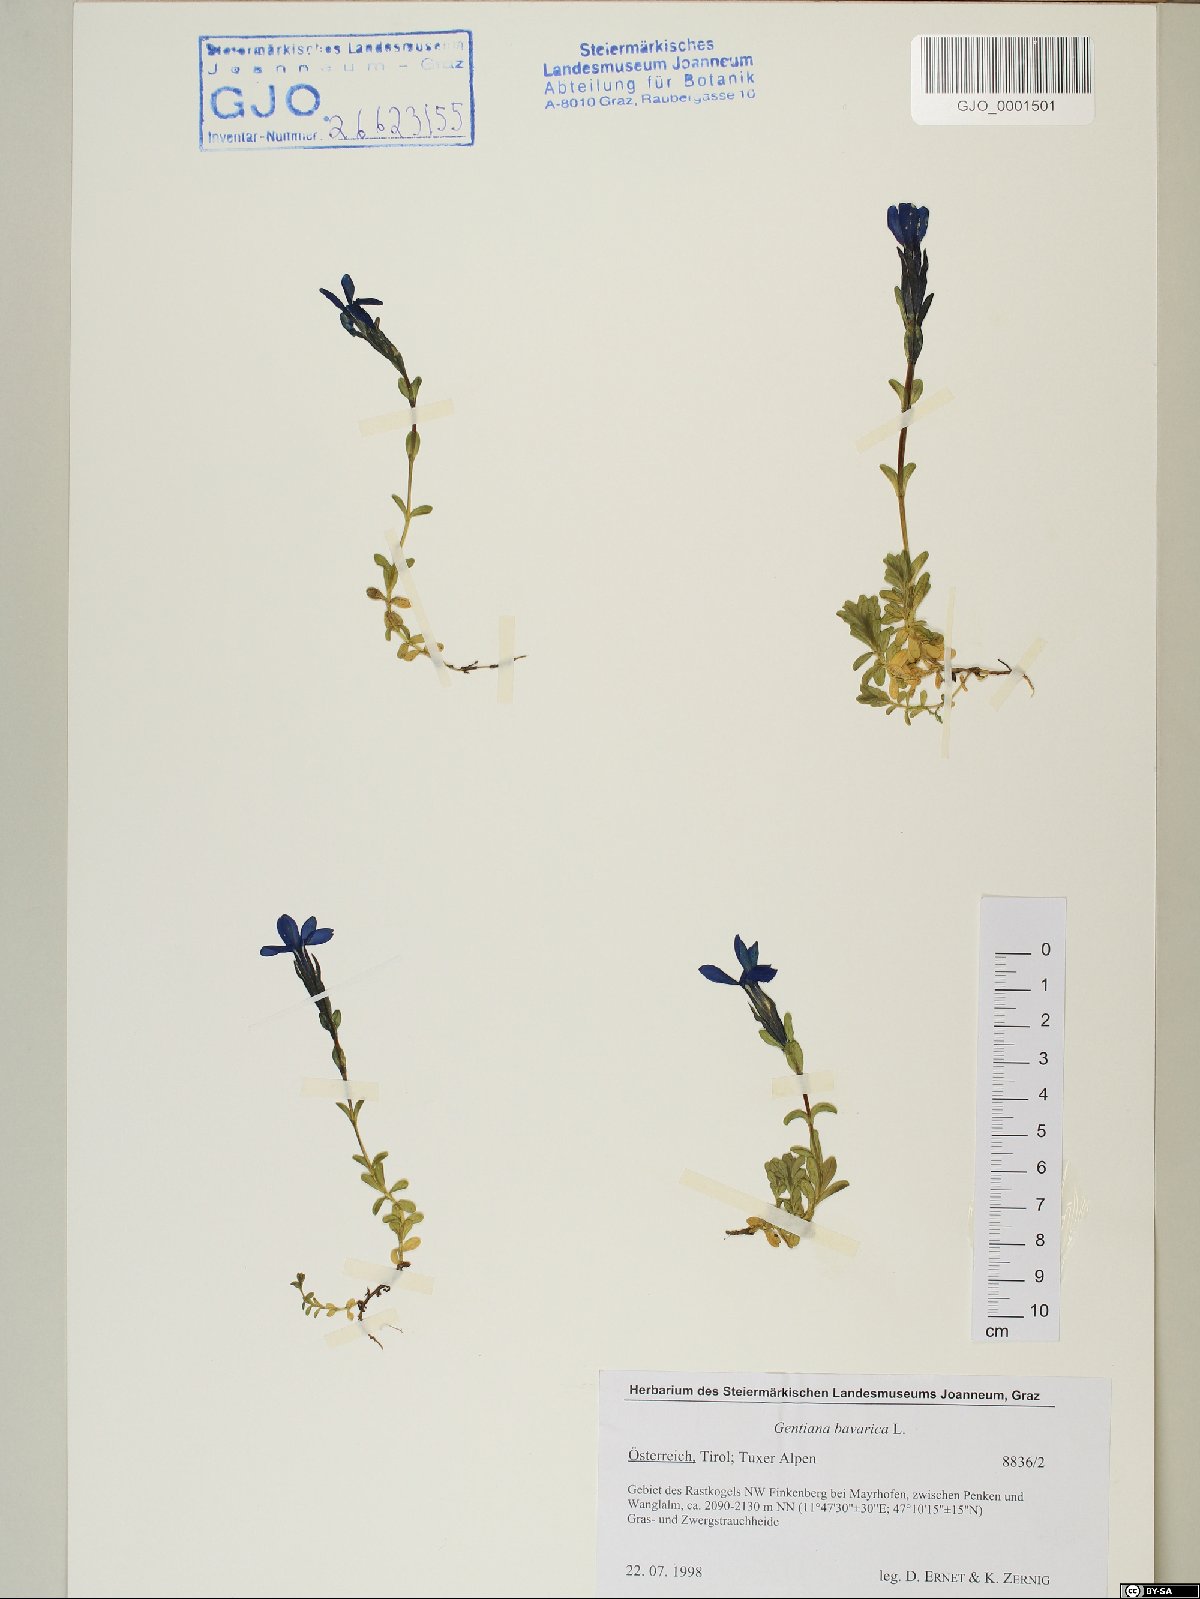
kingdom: Plantae
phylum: Tracheophyta
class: Magnoliopsida
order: Gentianales
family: Gentianaceae
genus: Gentiana
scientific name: Gentiana bavarica
